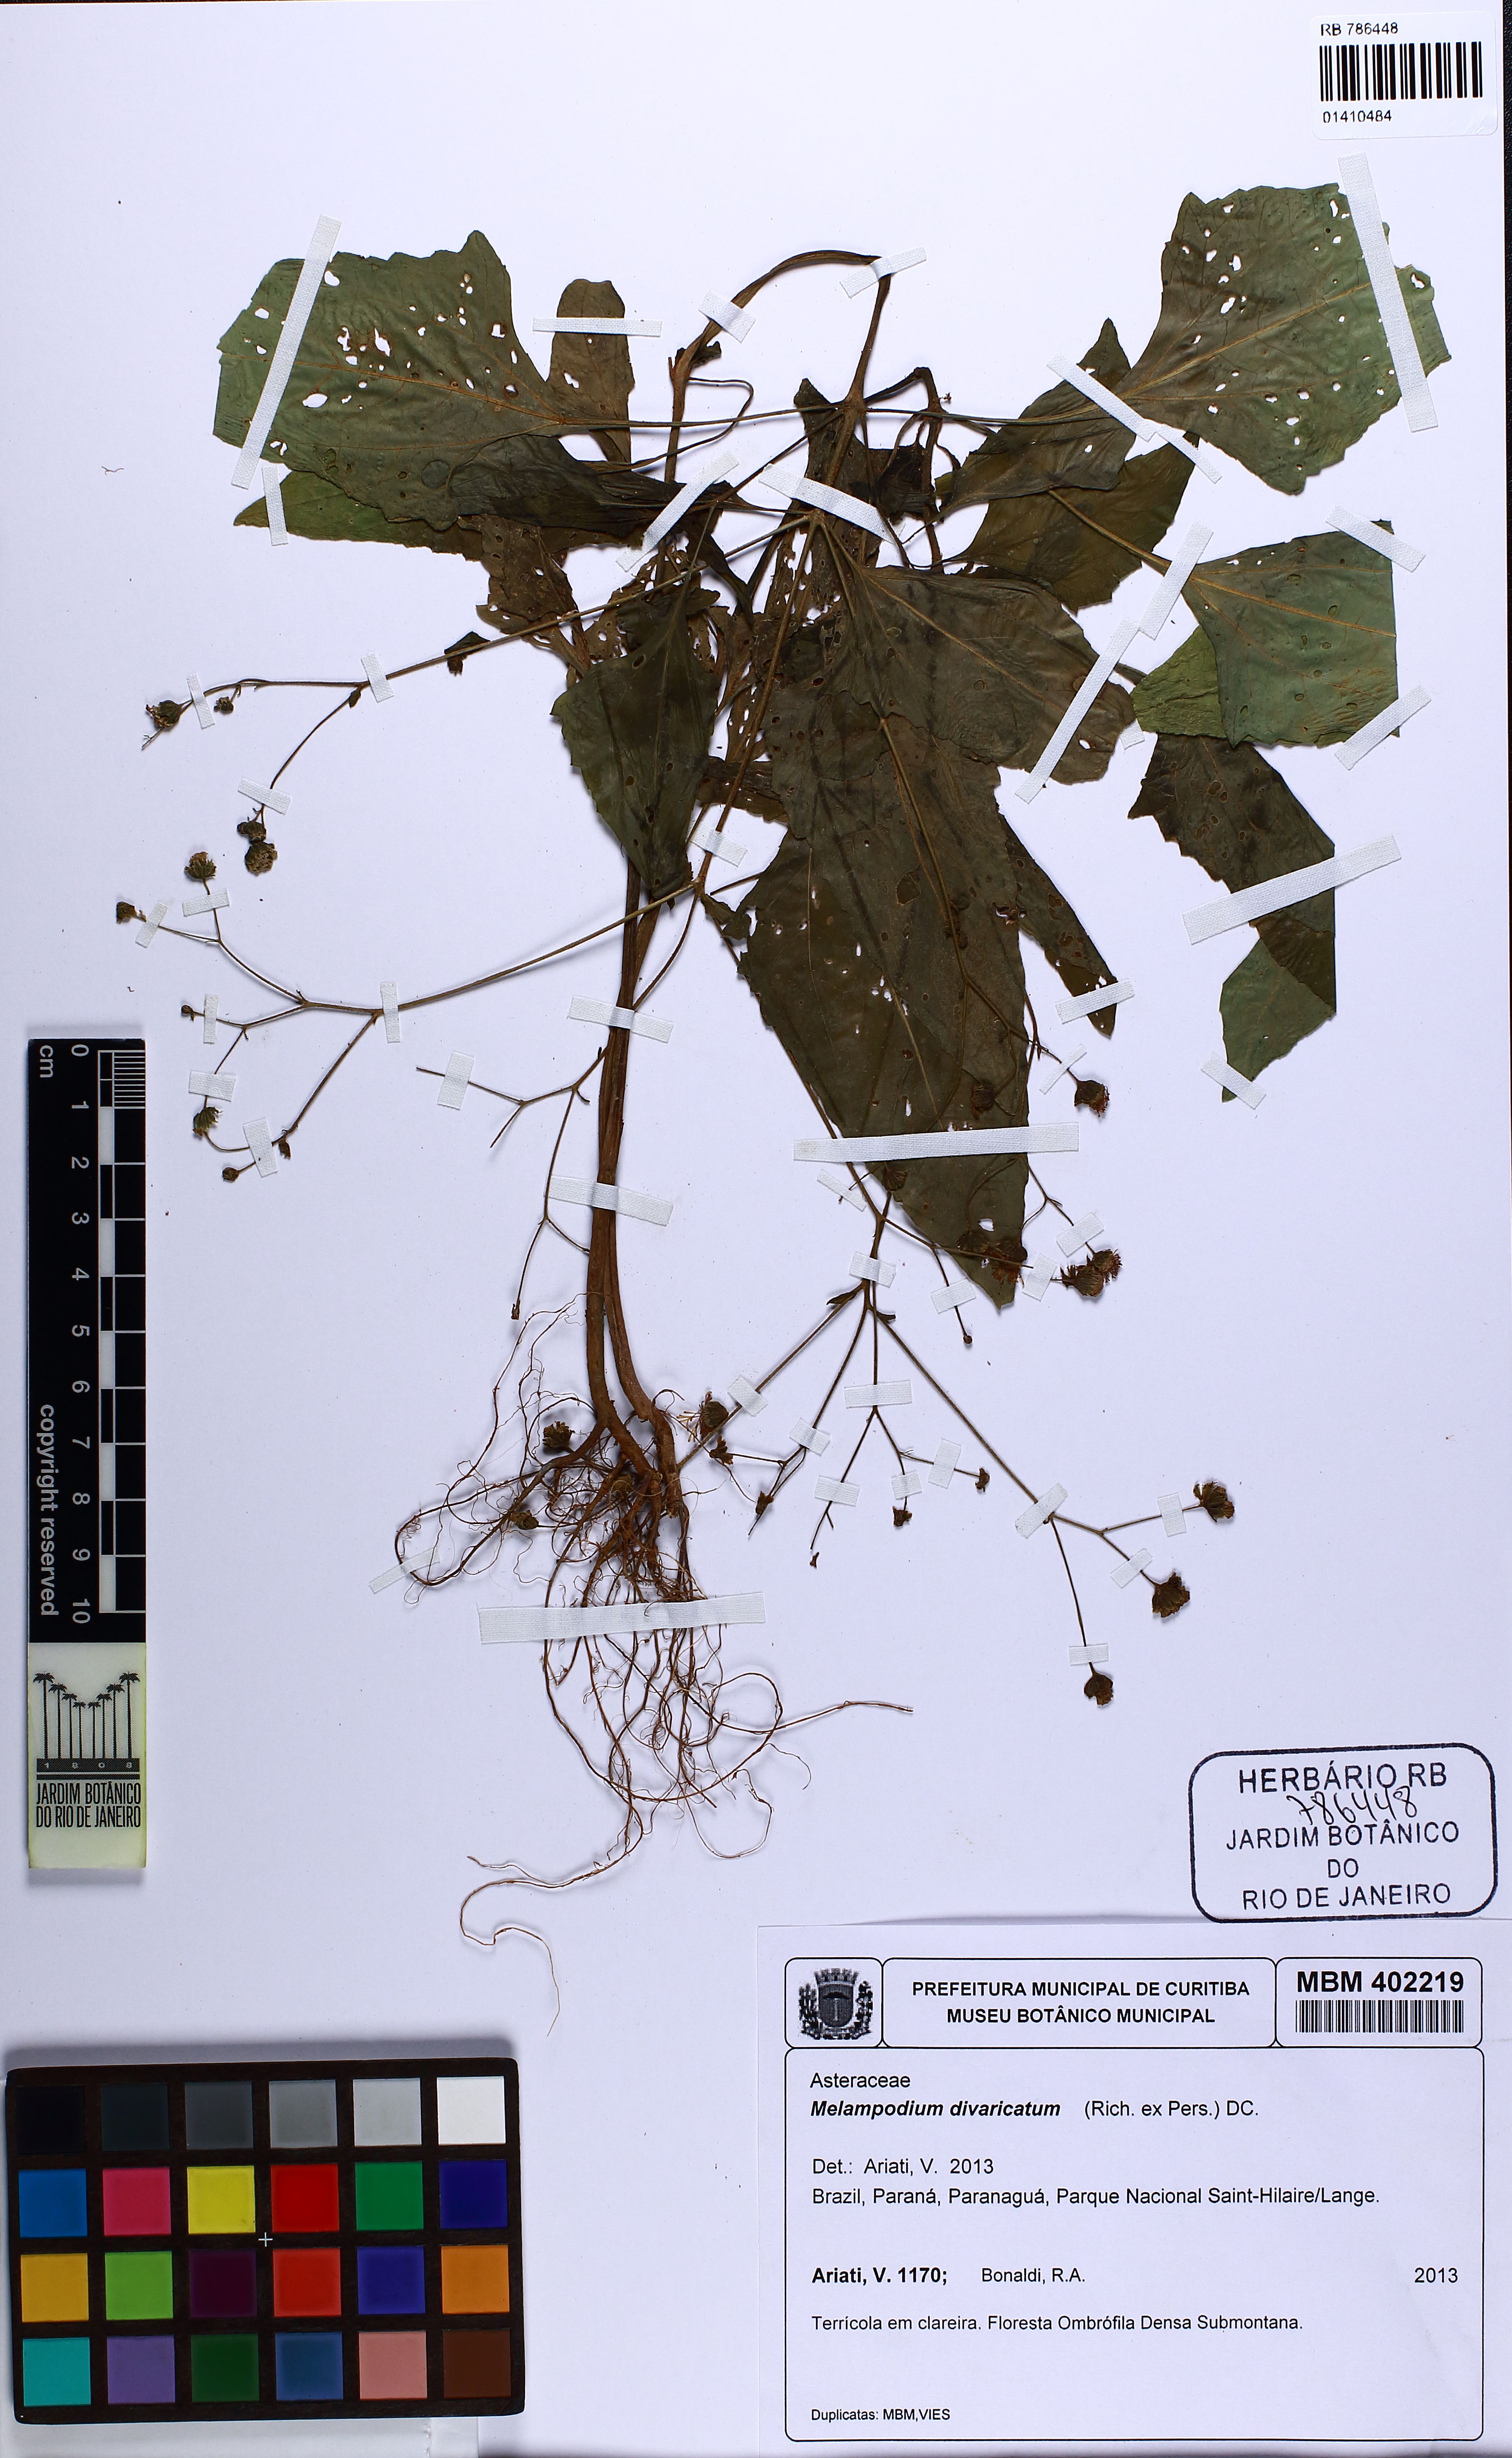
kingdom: Plantae
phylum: Tracheophyta
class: Magnoliopsida
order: Asterales
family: Asteraceae
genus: Melampodium
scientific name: Melampodium divaricatum
